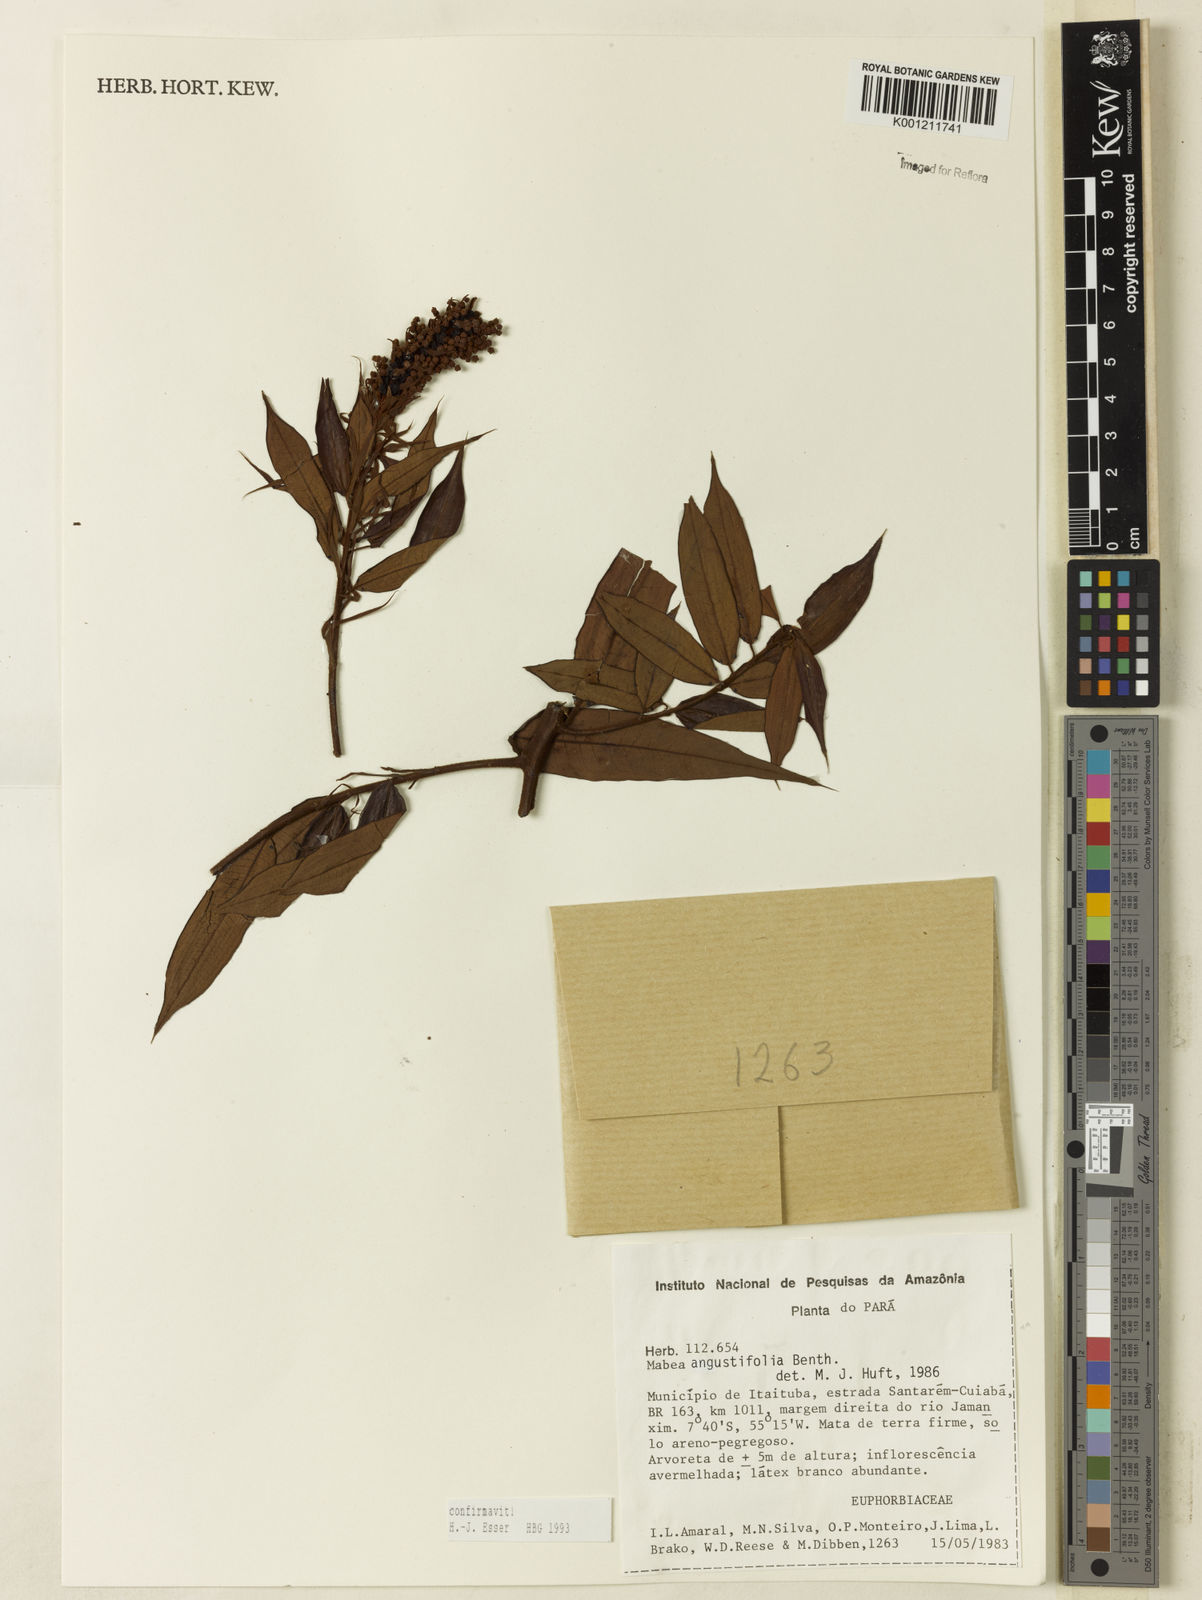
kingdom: Plantae
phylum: Tracheophyta
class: Magnoliopsida
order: Malpighiales
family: Euphorbiaceae
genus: Mabea
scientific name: Mabea angustifolia
